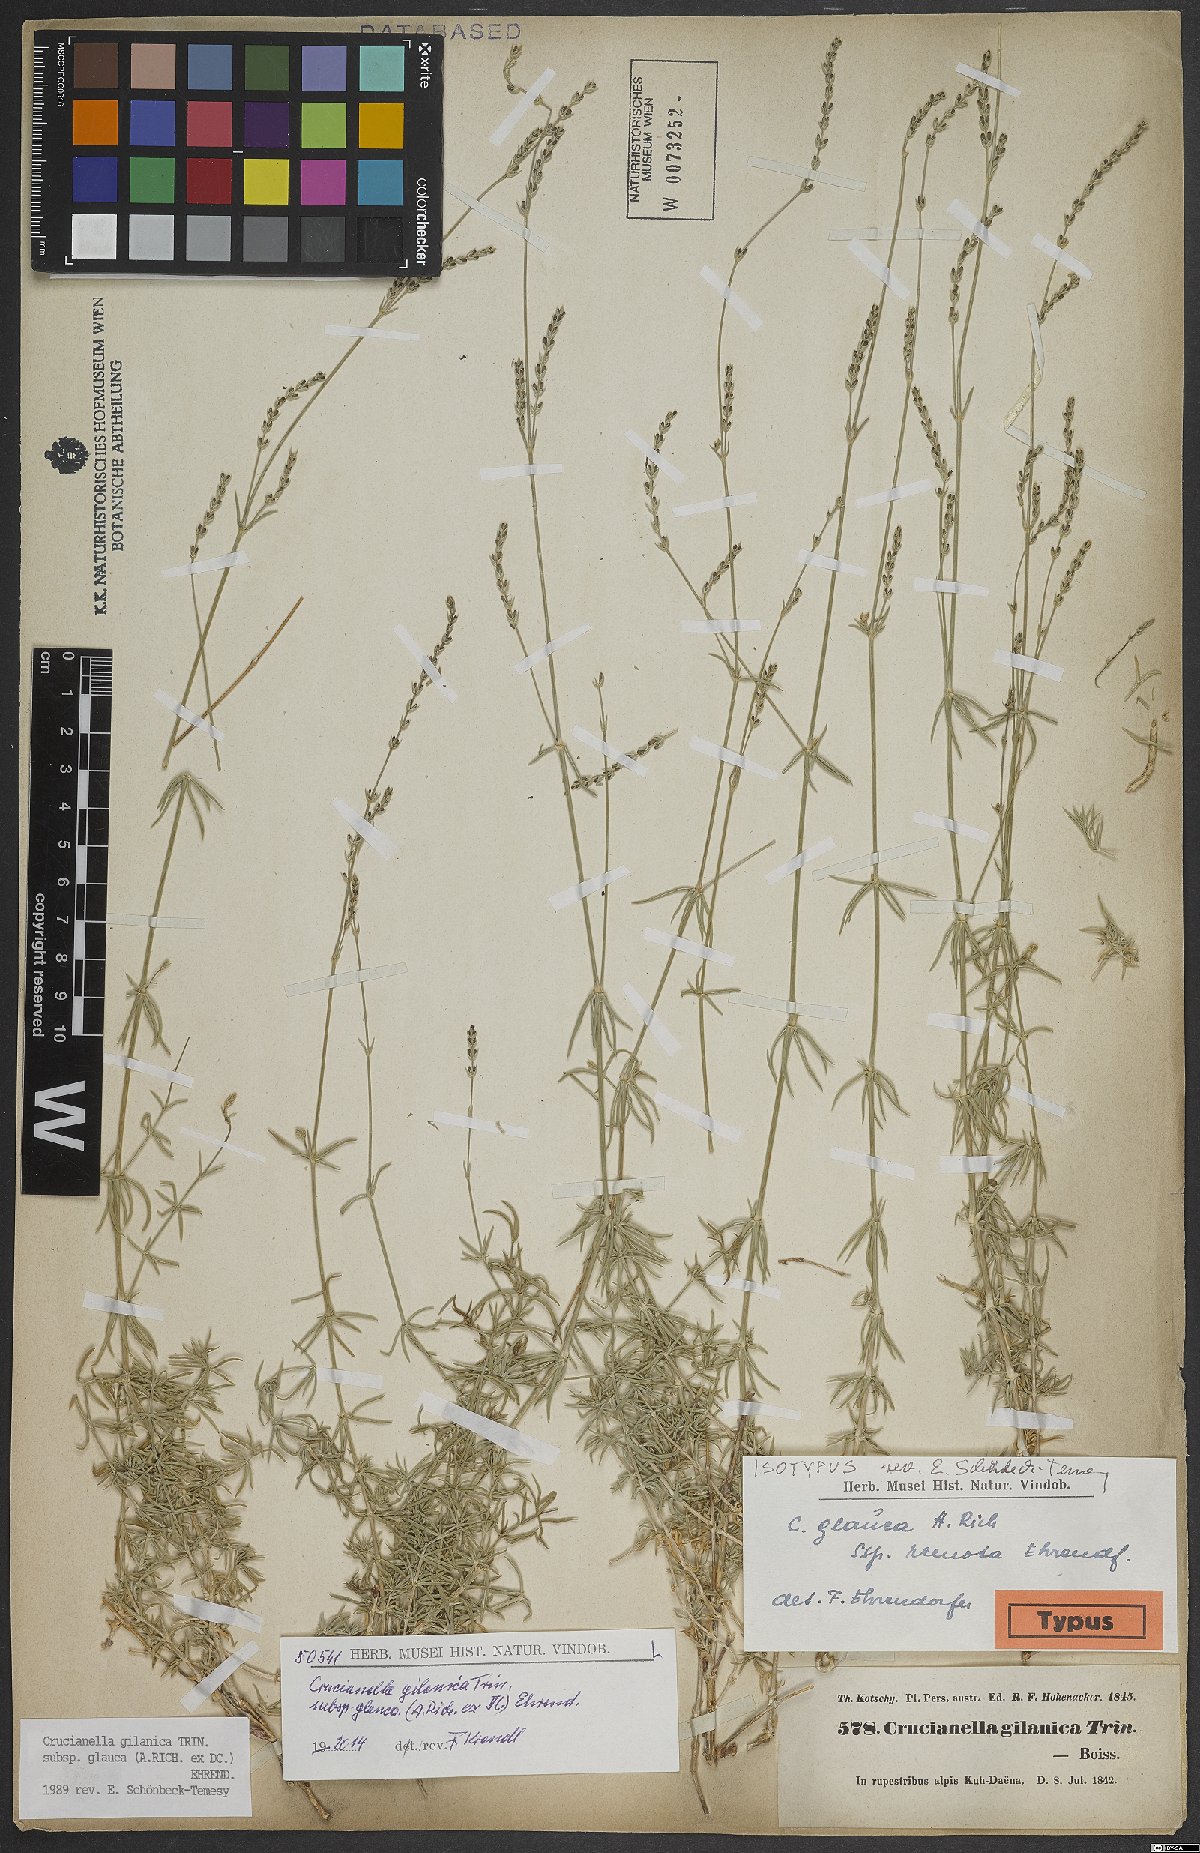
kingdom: Plantae
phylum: Tracheophyta
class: Magnoliopsida
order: Gentianales
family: Rubiaceae
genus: Crucianella
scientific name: Crucianella gilanica
